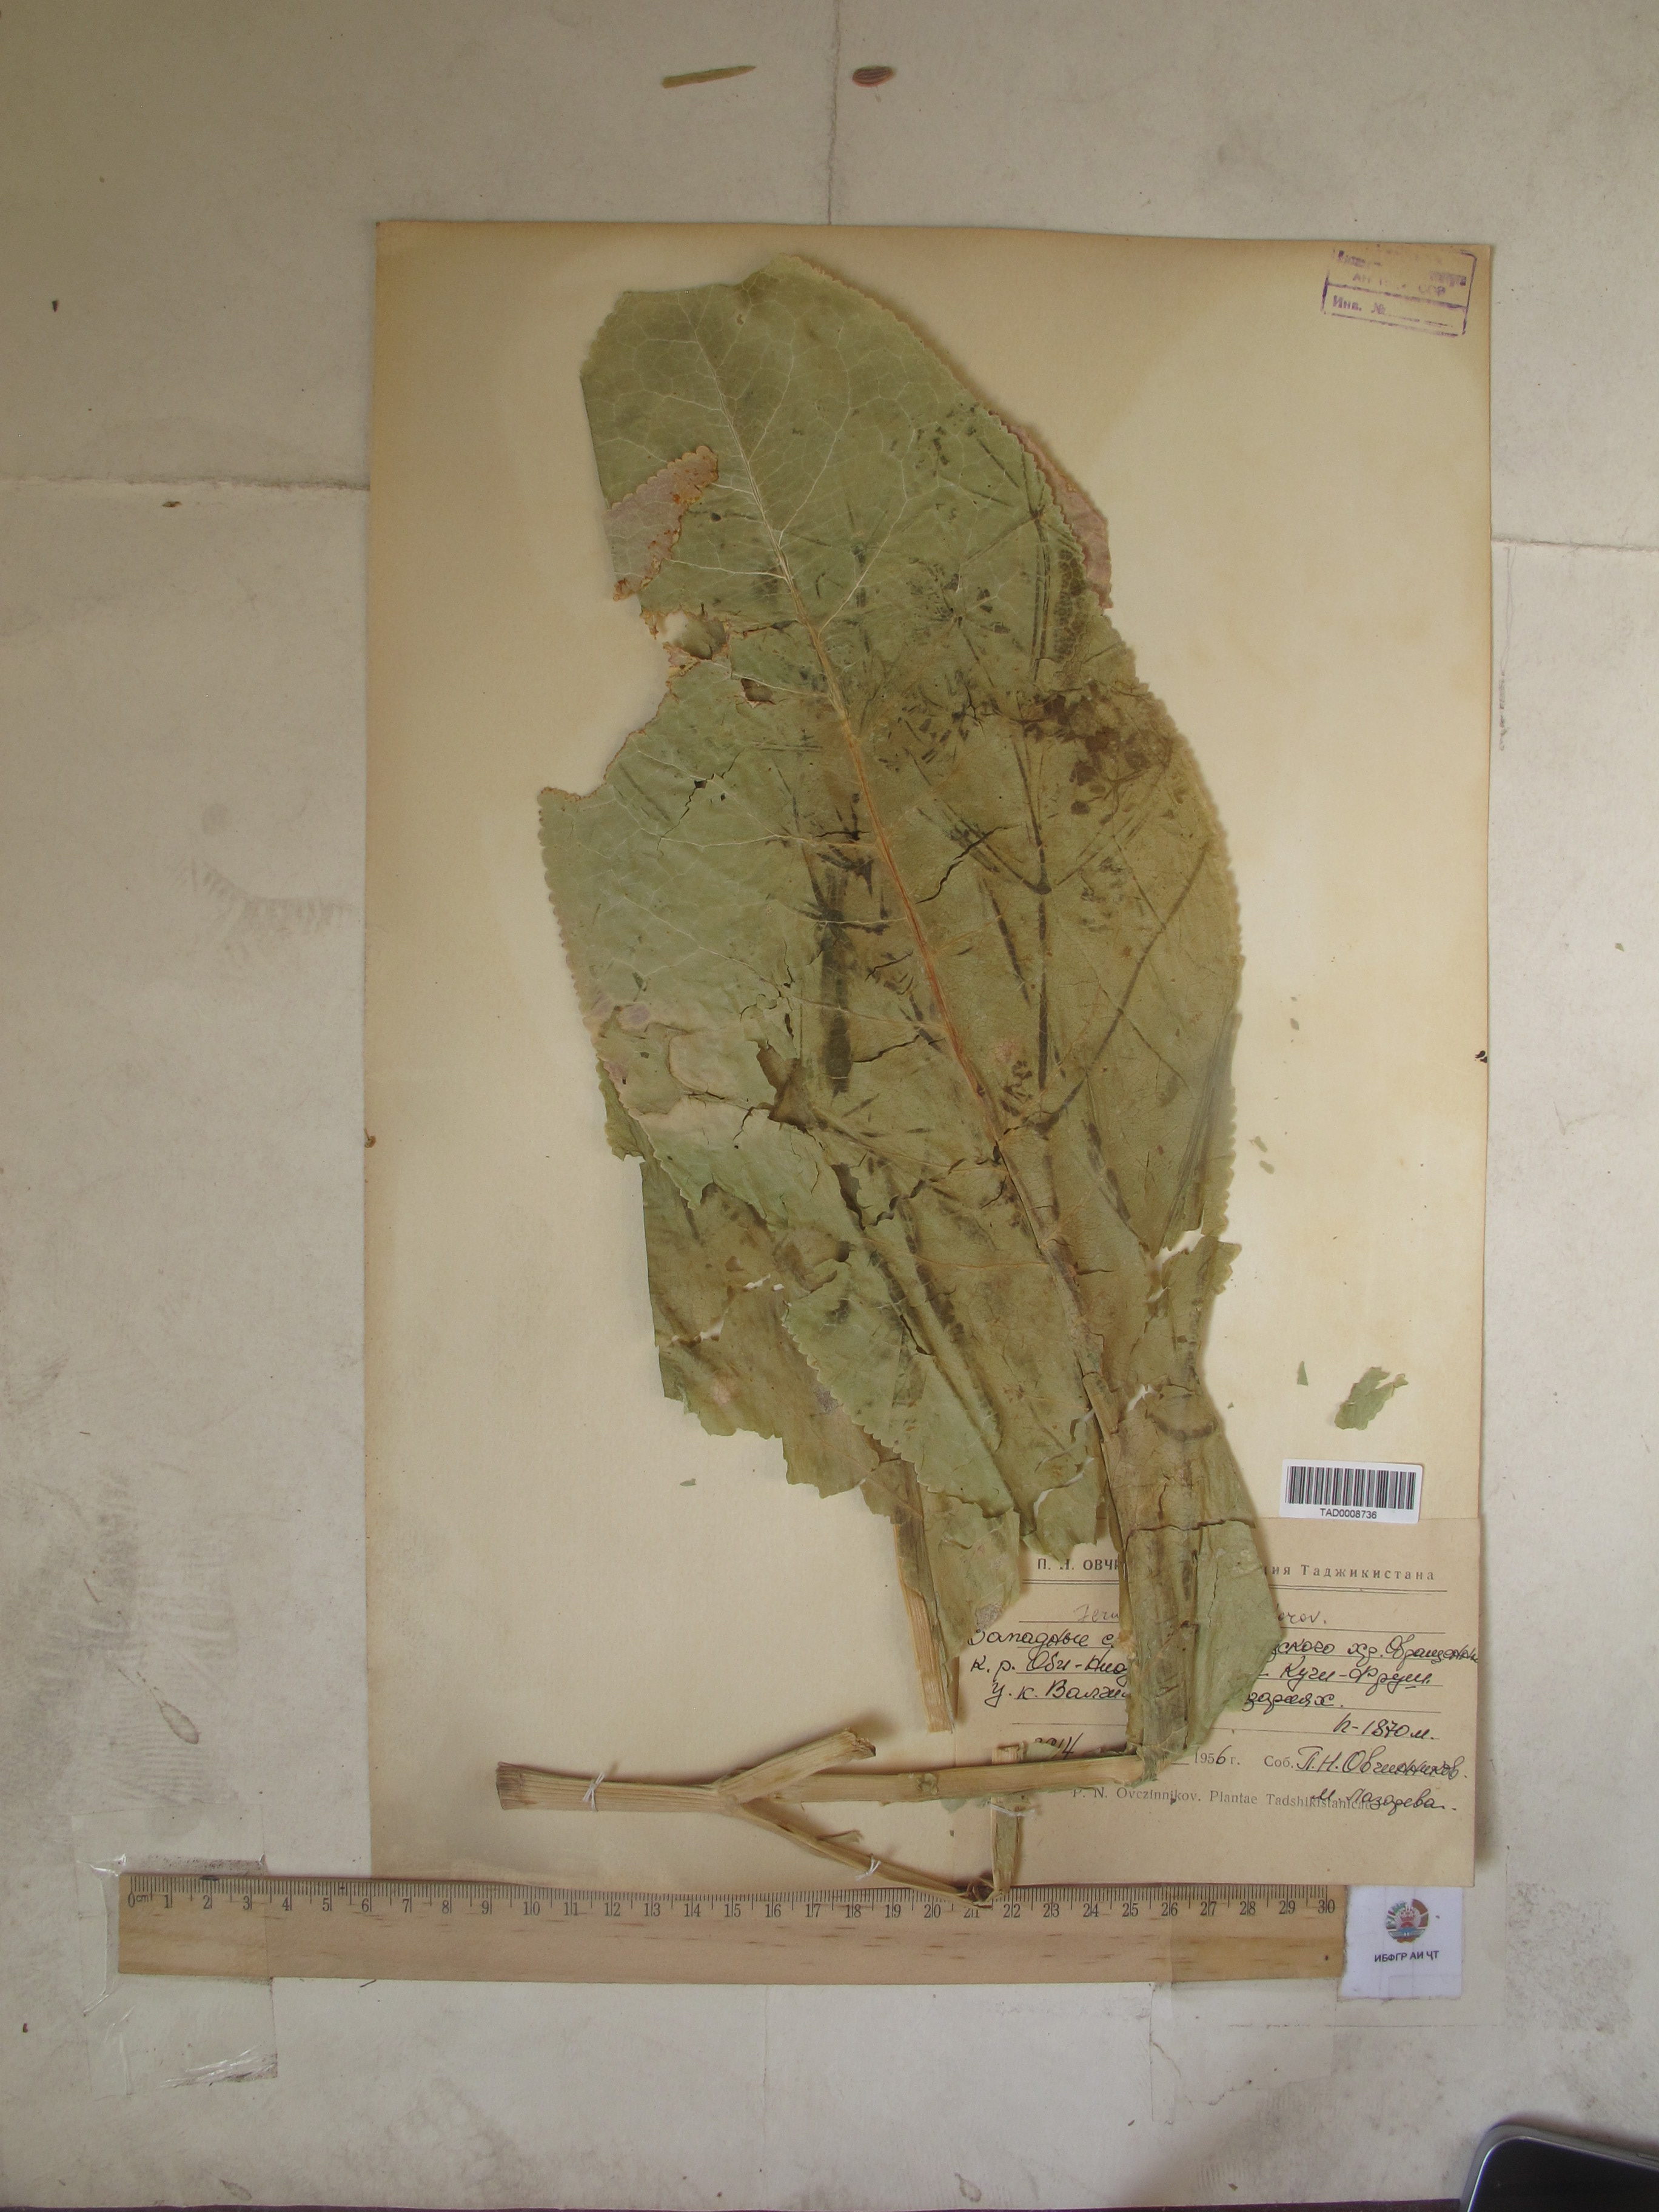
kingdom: Plantae
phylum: Tracheophyta
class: Magnoliopsida
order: Apiales
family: Apiaceae
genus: Ferula
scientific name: Ferula gigantea
